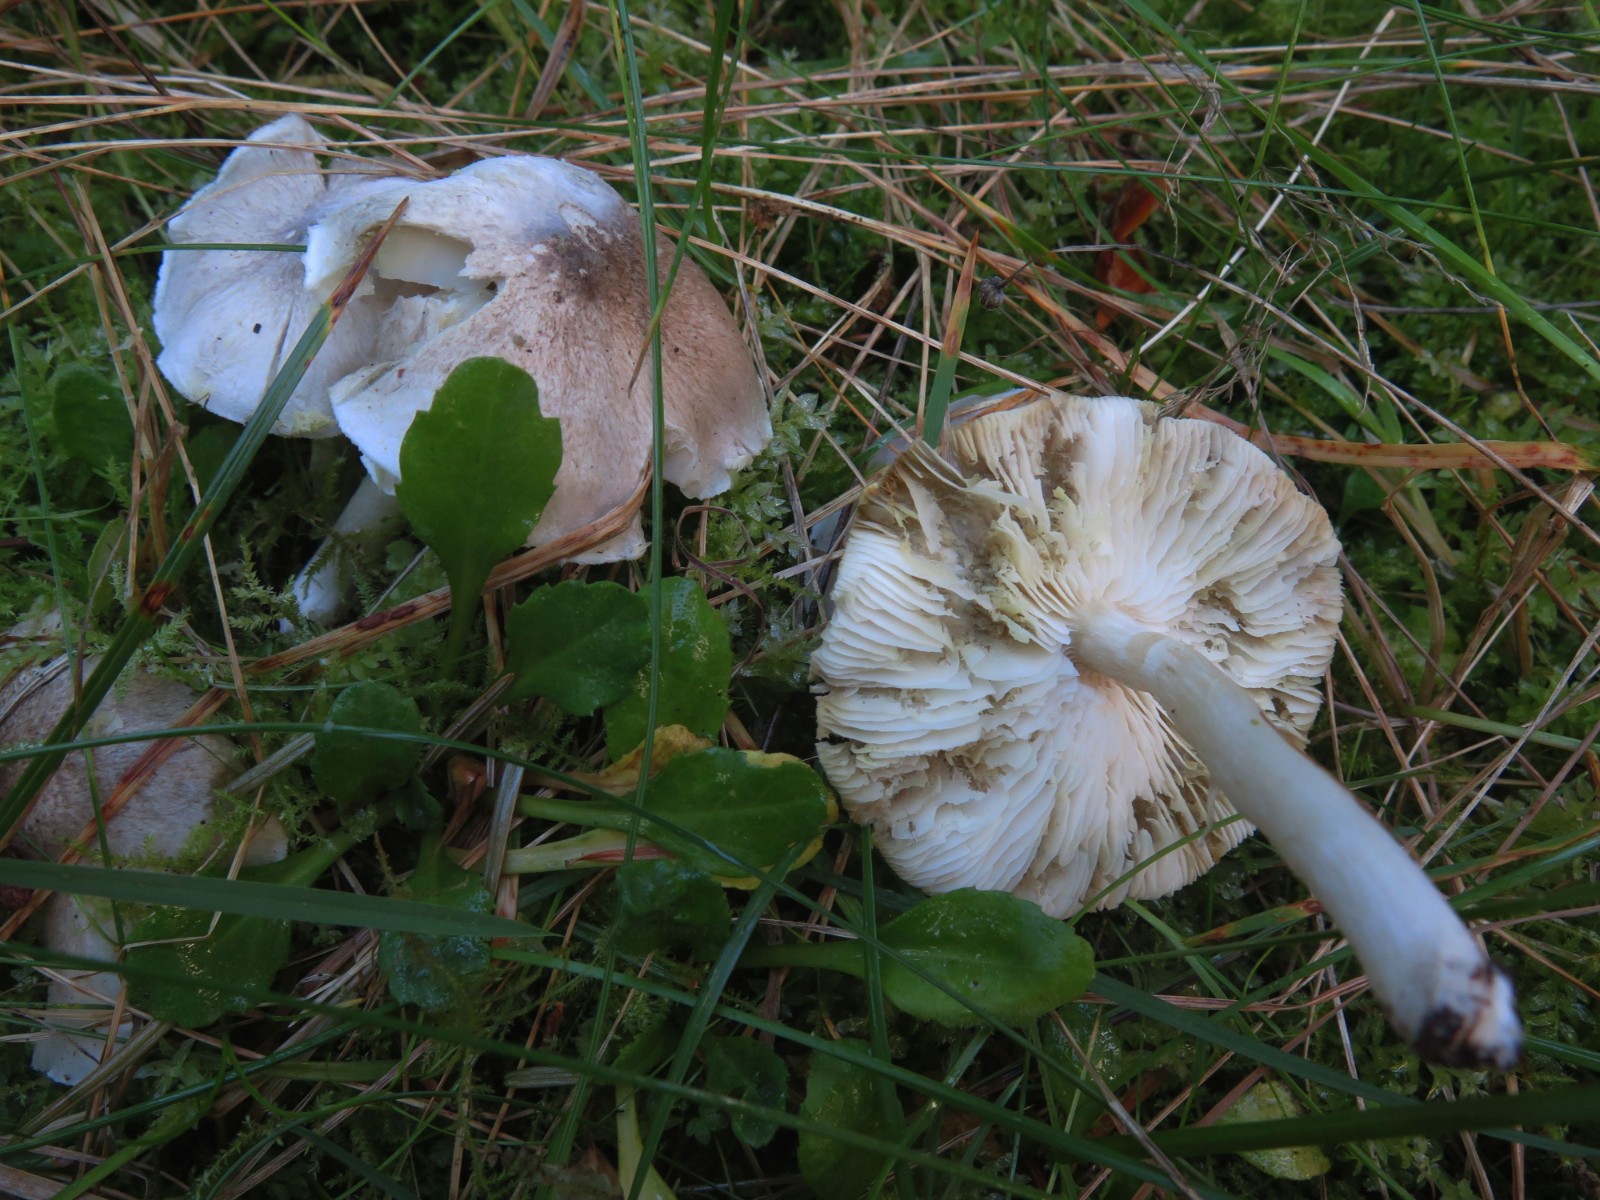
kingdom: Fungi
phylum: Basidiomycota
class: Agaricomycetes
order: Agaricales
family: Tricholomataceae
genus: Tricholoma
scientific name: Tricholoma scalpturatum
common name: gulplettet ridderhat
